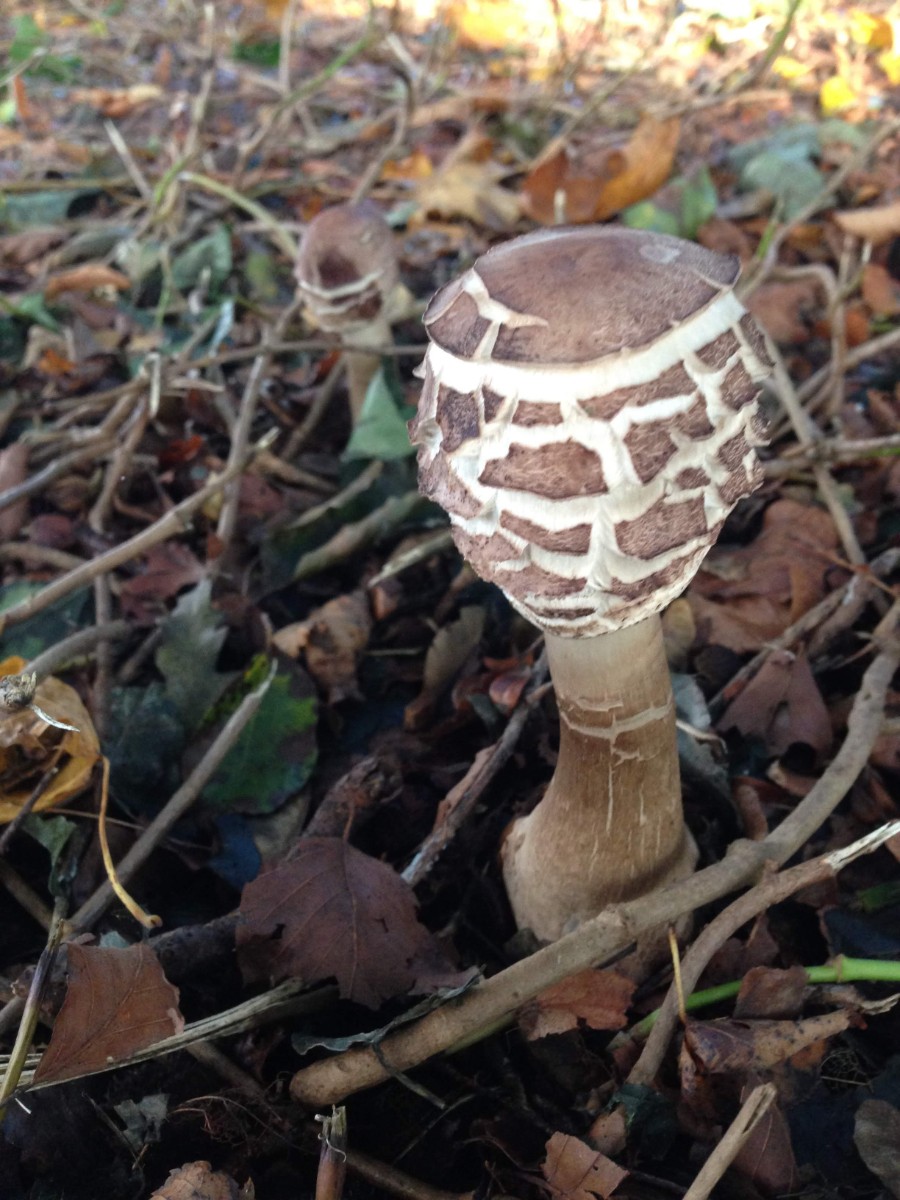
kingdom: Fungi
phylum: Basidiomycota
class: Agaricomycetes
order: Agaricales
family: Agaricaceae
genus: Chlorophyllum
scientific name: Chlorophyllum rhacodes
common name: ægte rabarberhat
